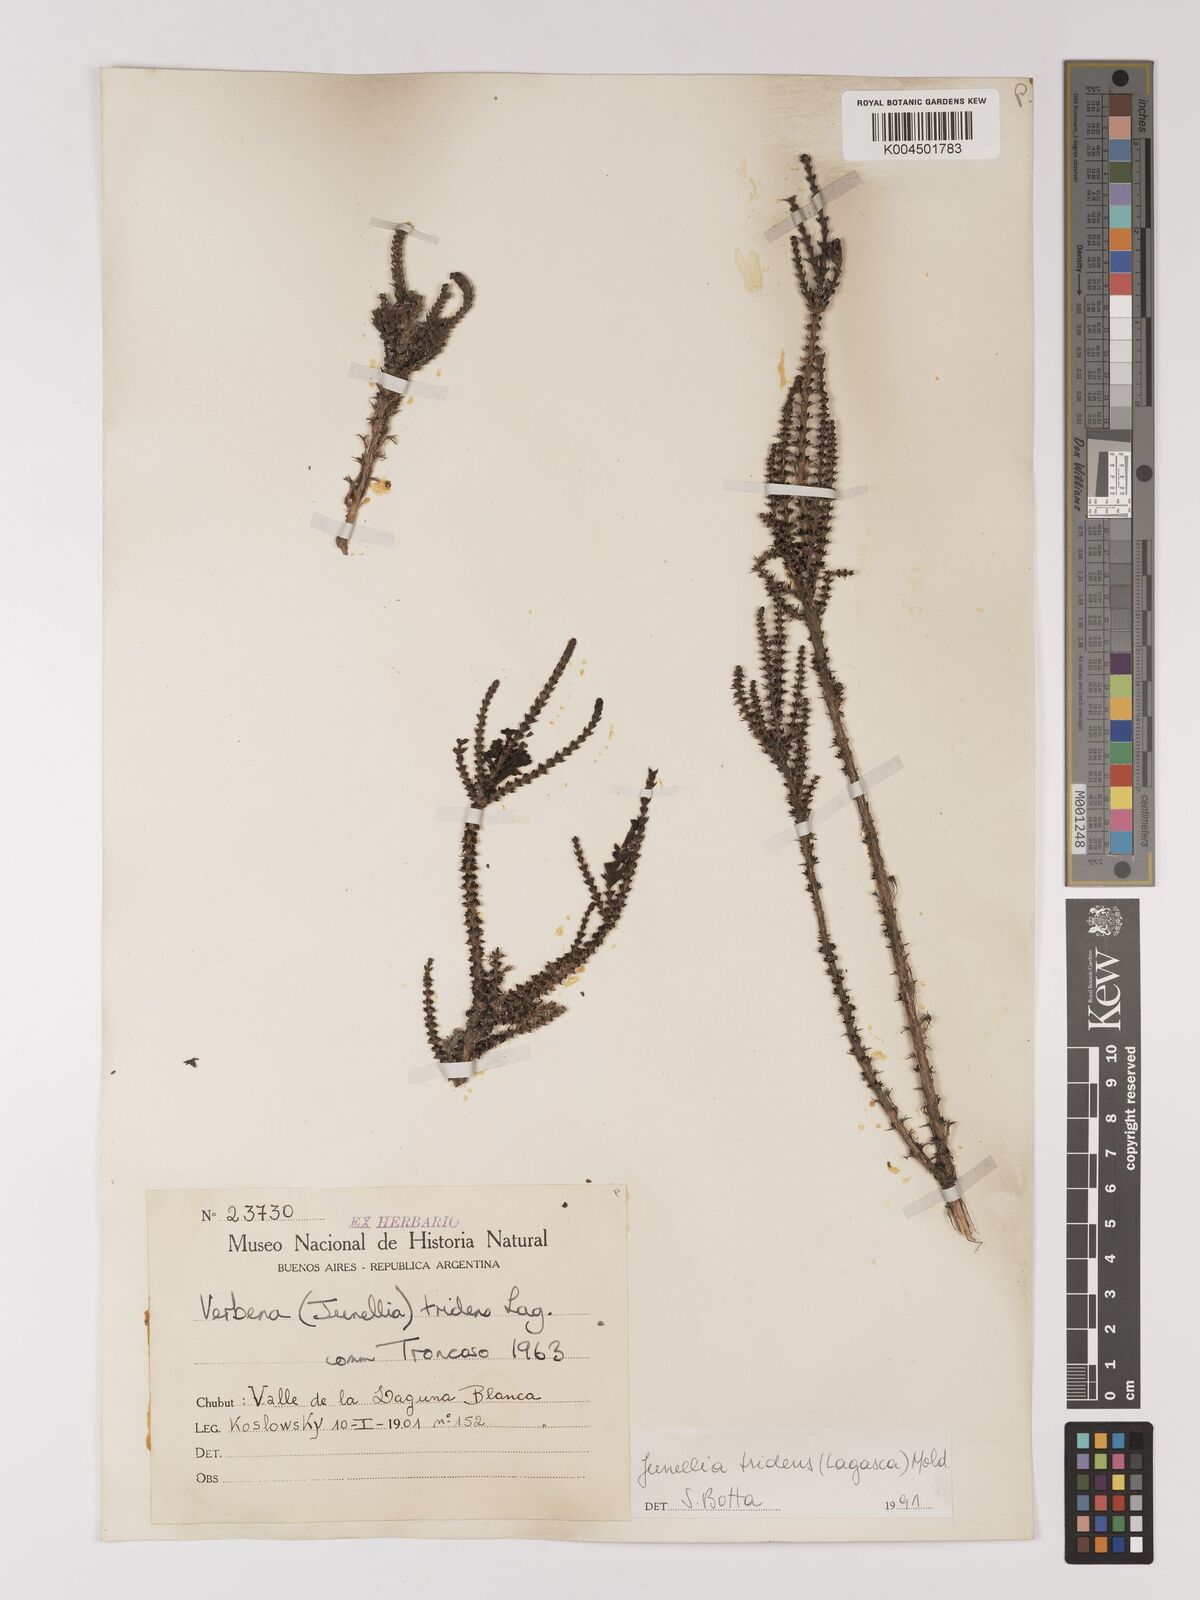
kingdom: Plantae
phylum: Tracheophyta
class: Magnoliopsida
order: Lamiales
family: Verbenaceae
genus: Mulguraea
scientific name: Mulguraea tridens
